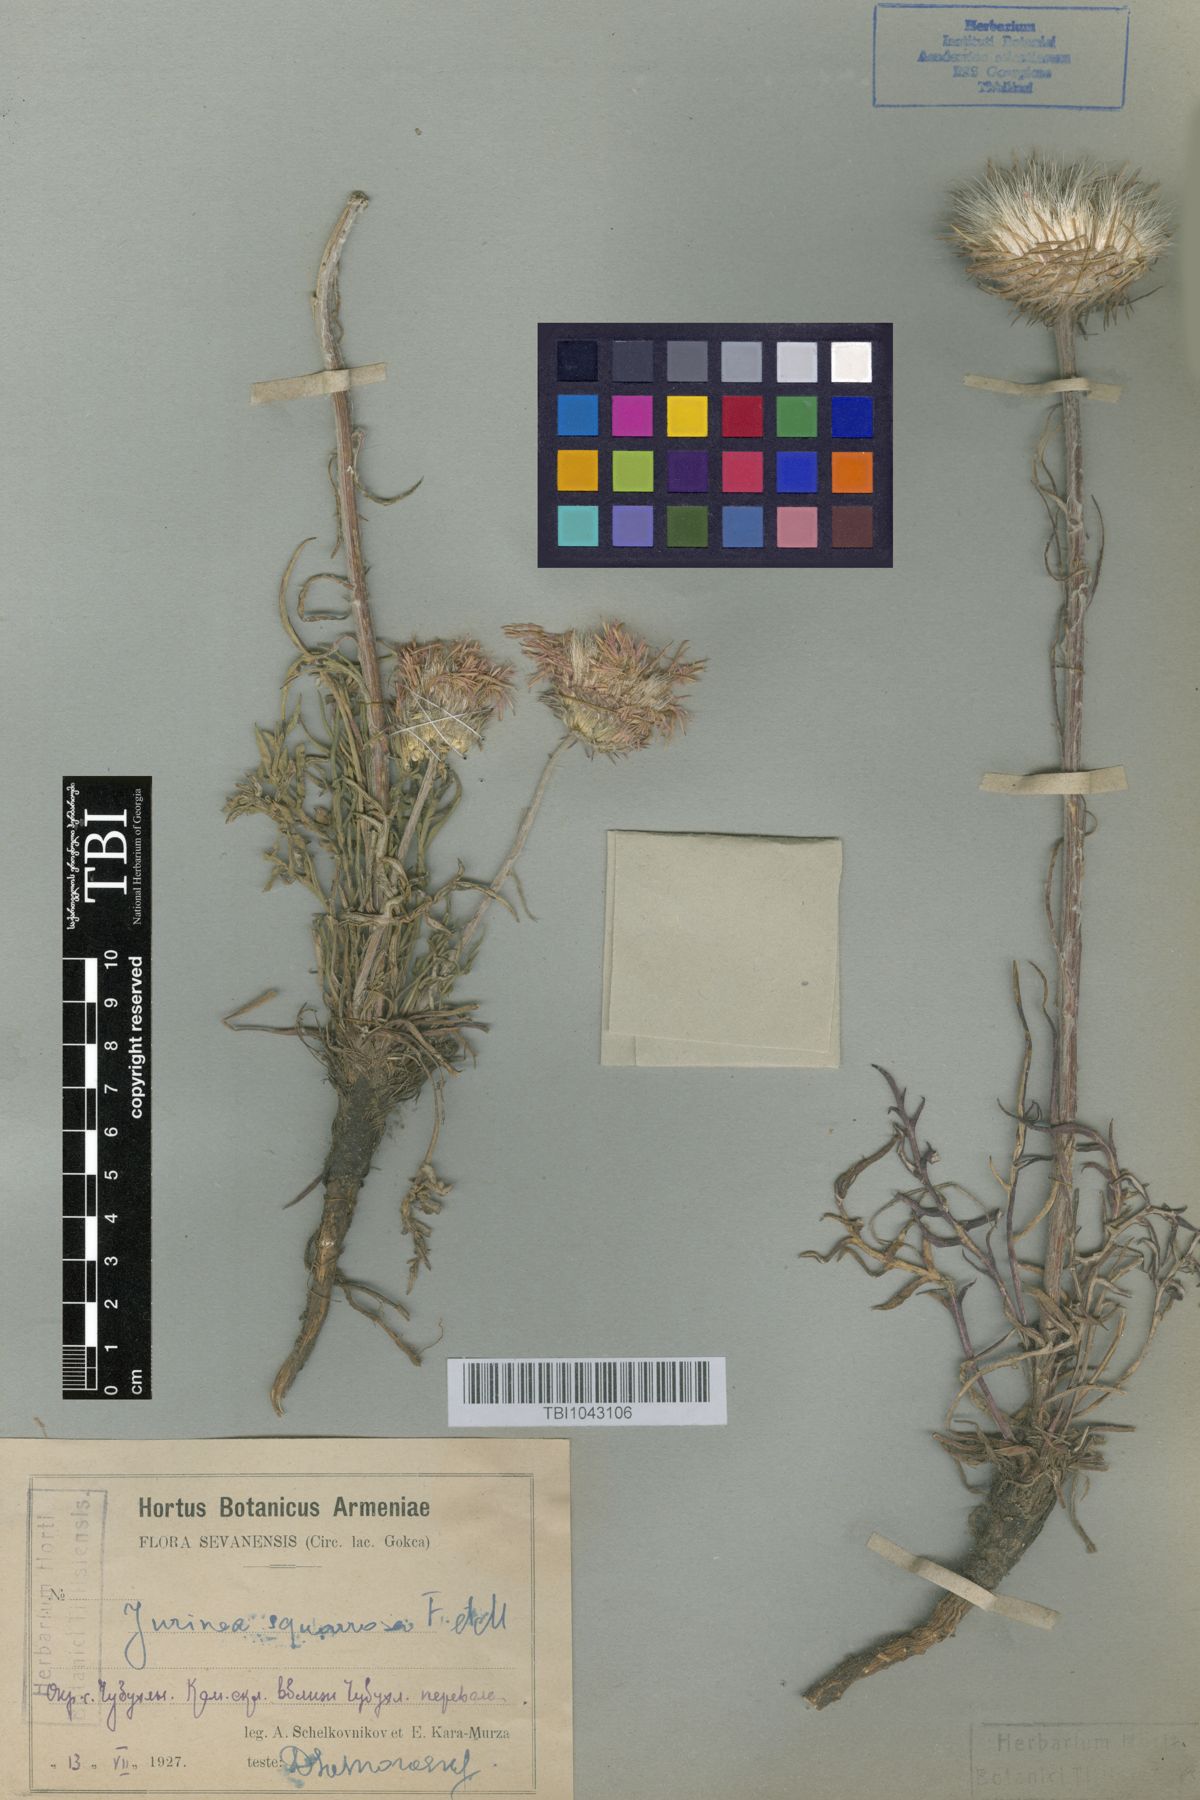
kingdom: Plantae
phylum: Tracheophyta
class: Magnoliopsida
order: Asterales
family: Asteraceae
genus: Jurinea
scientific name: Jurinea squarrosa
